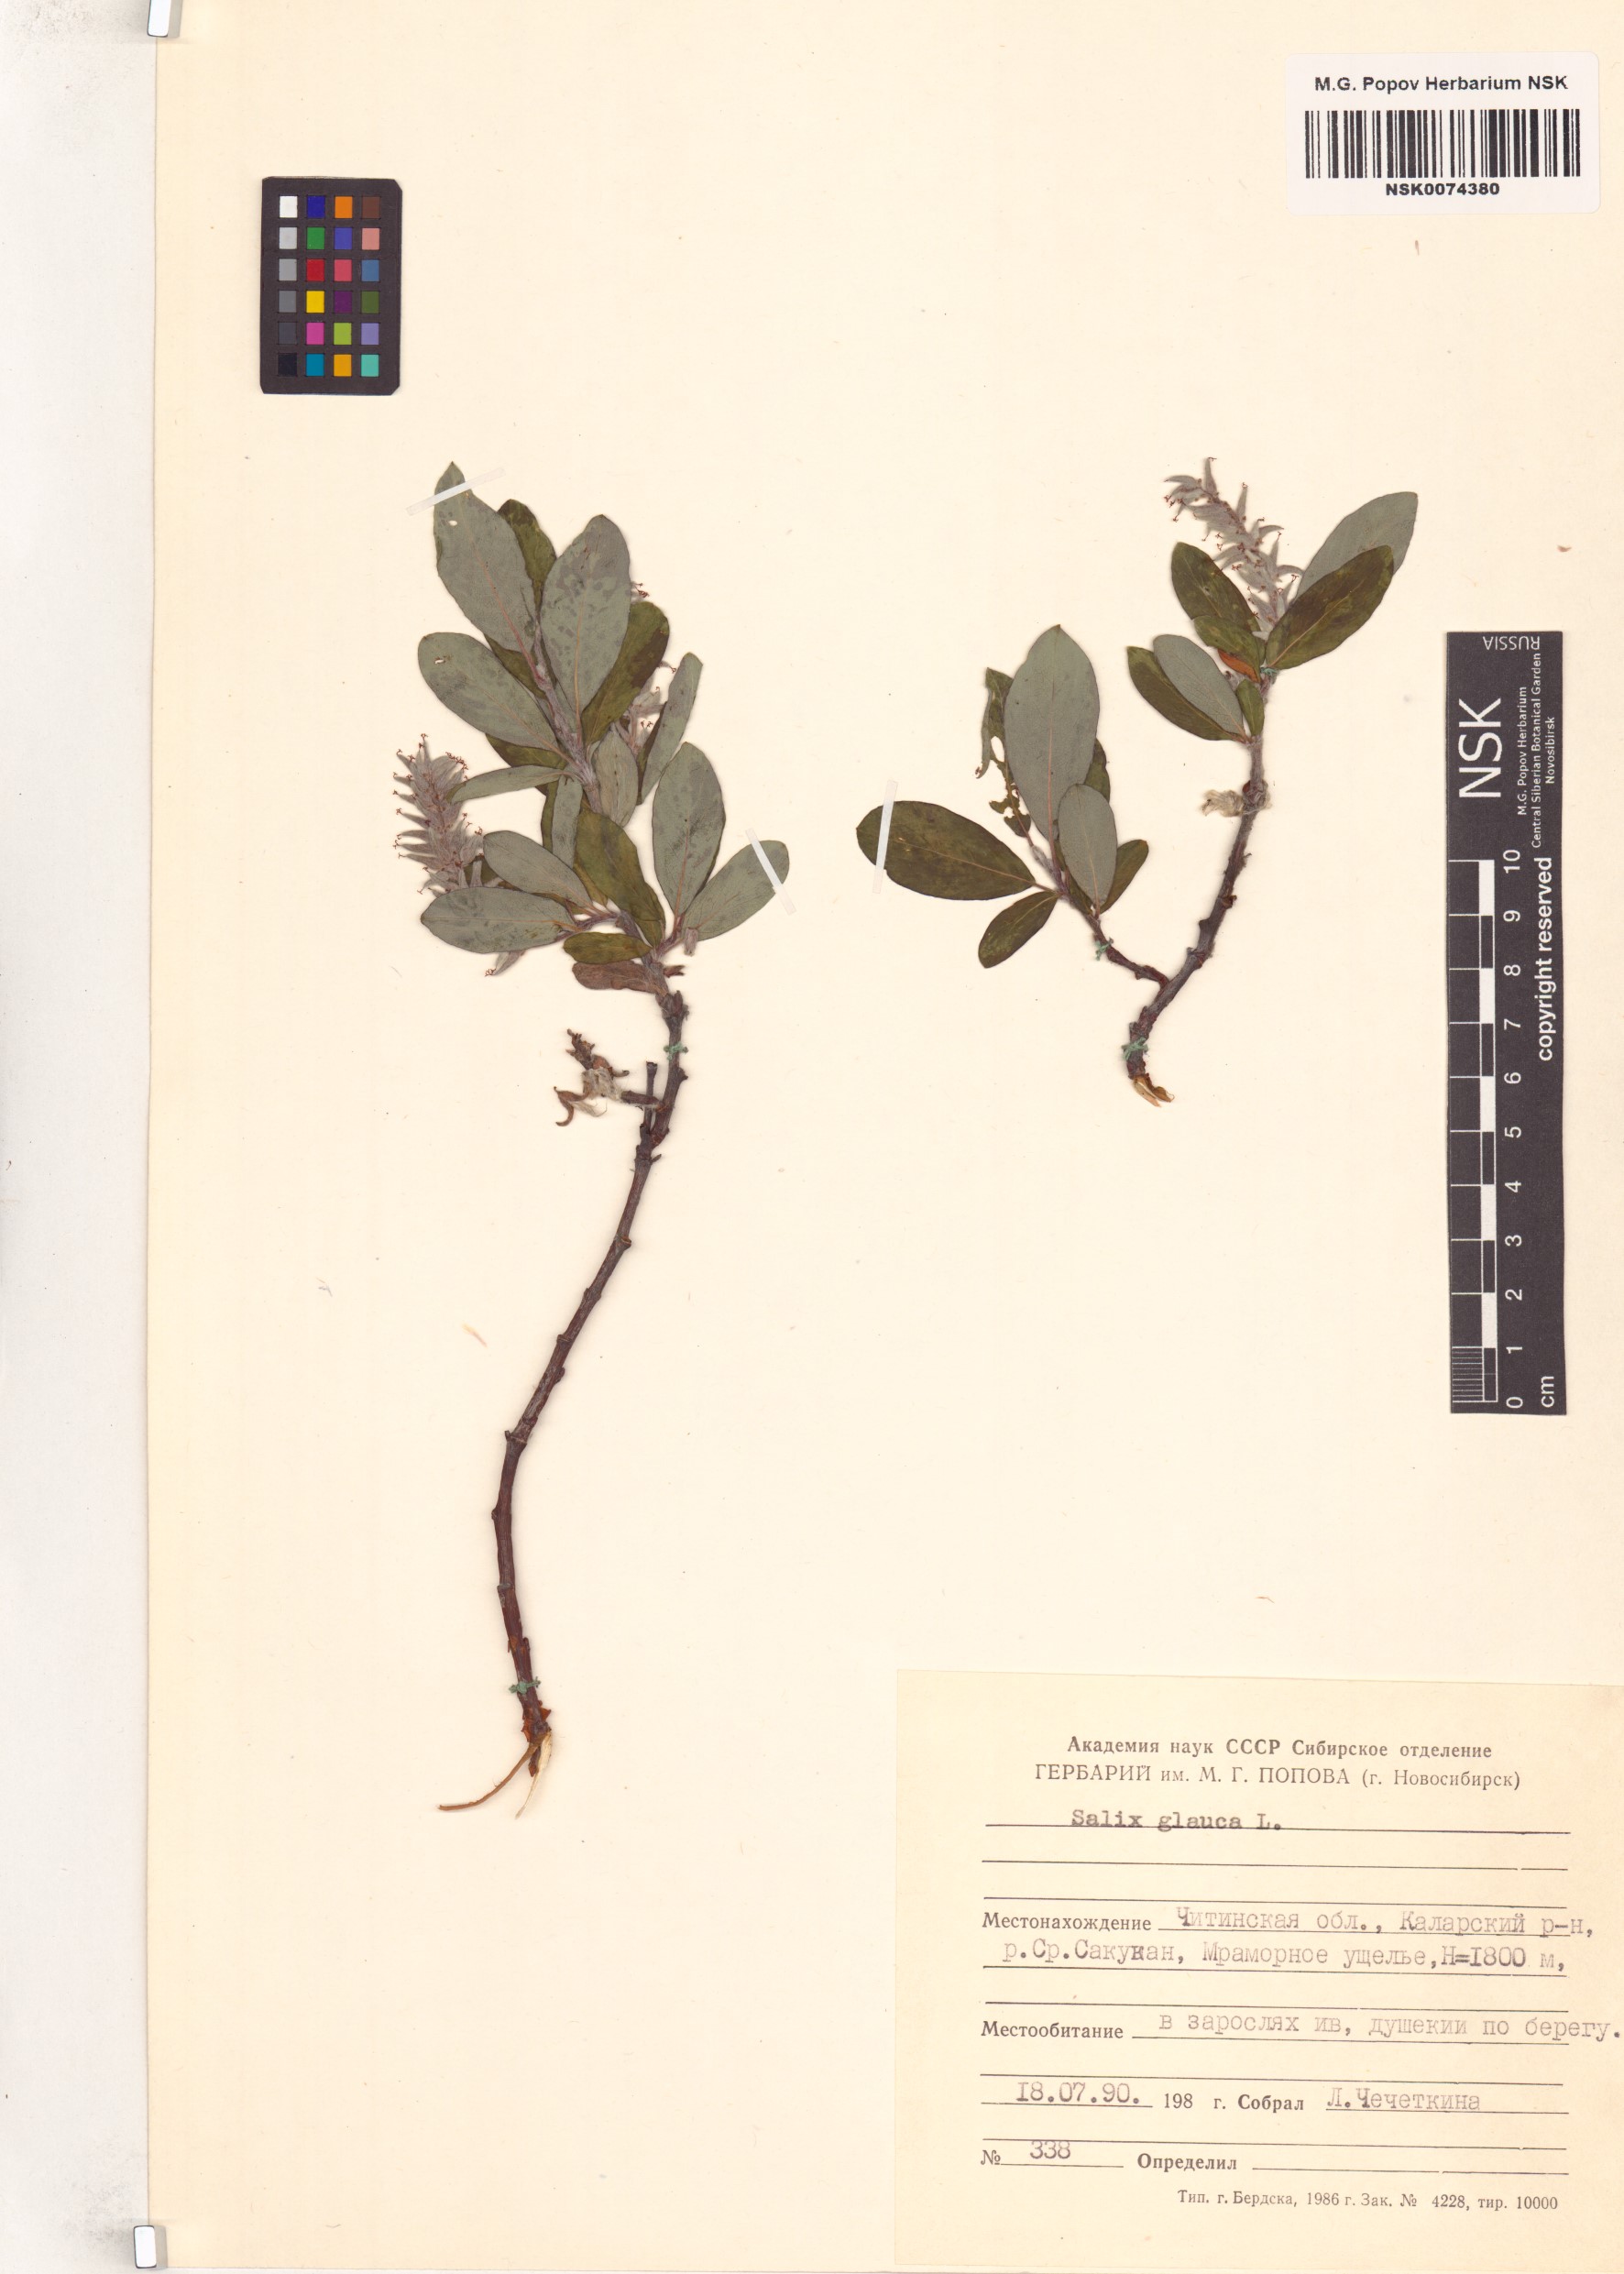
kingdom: Plantae
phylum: Tracheophyta
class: Magnoliopsida
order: Malpighiales
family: Salicaceae
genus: Salix
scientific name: Salix glauca
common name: Glaucous willow
